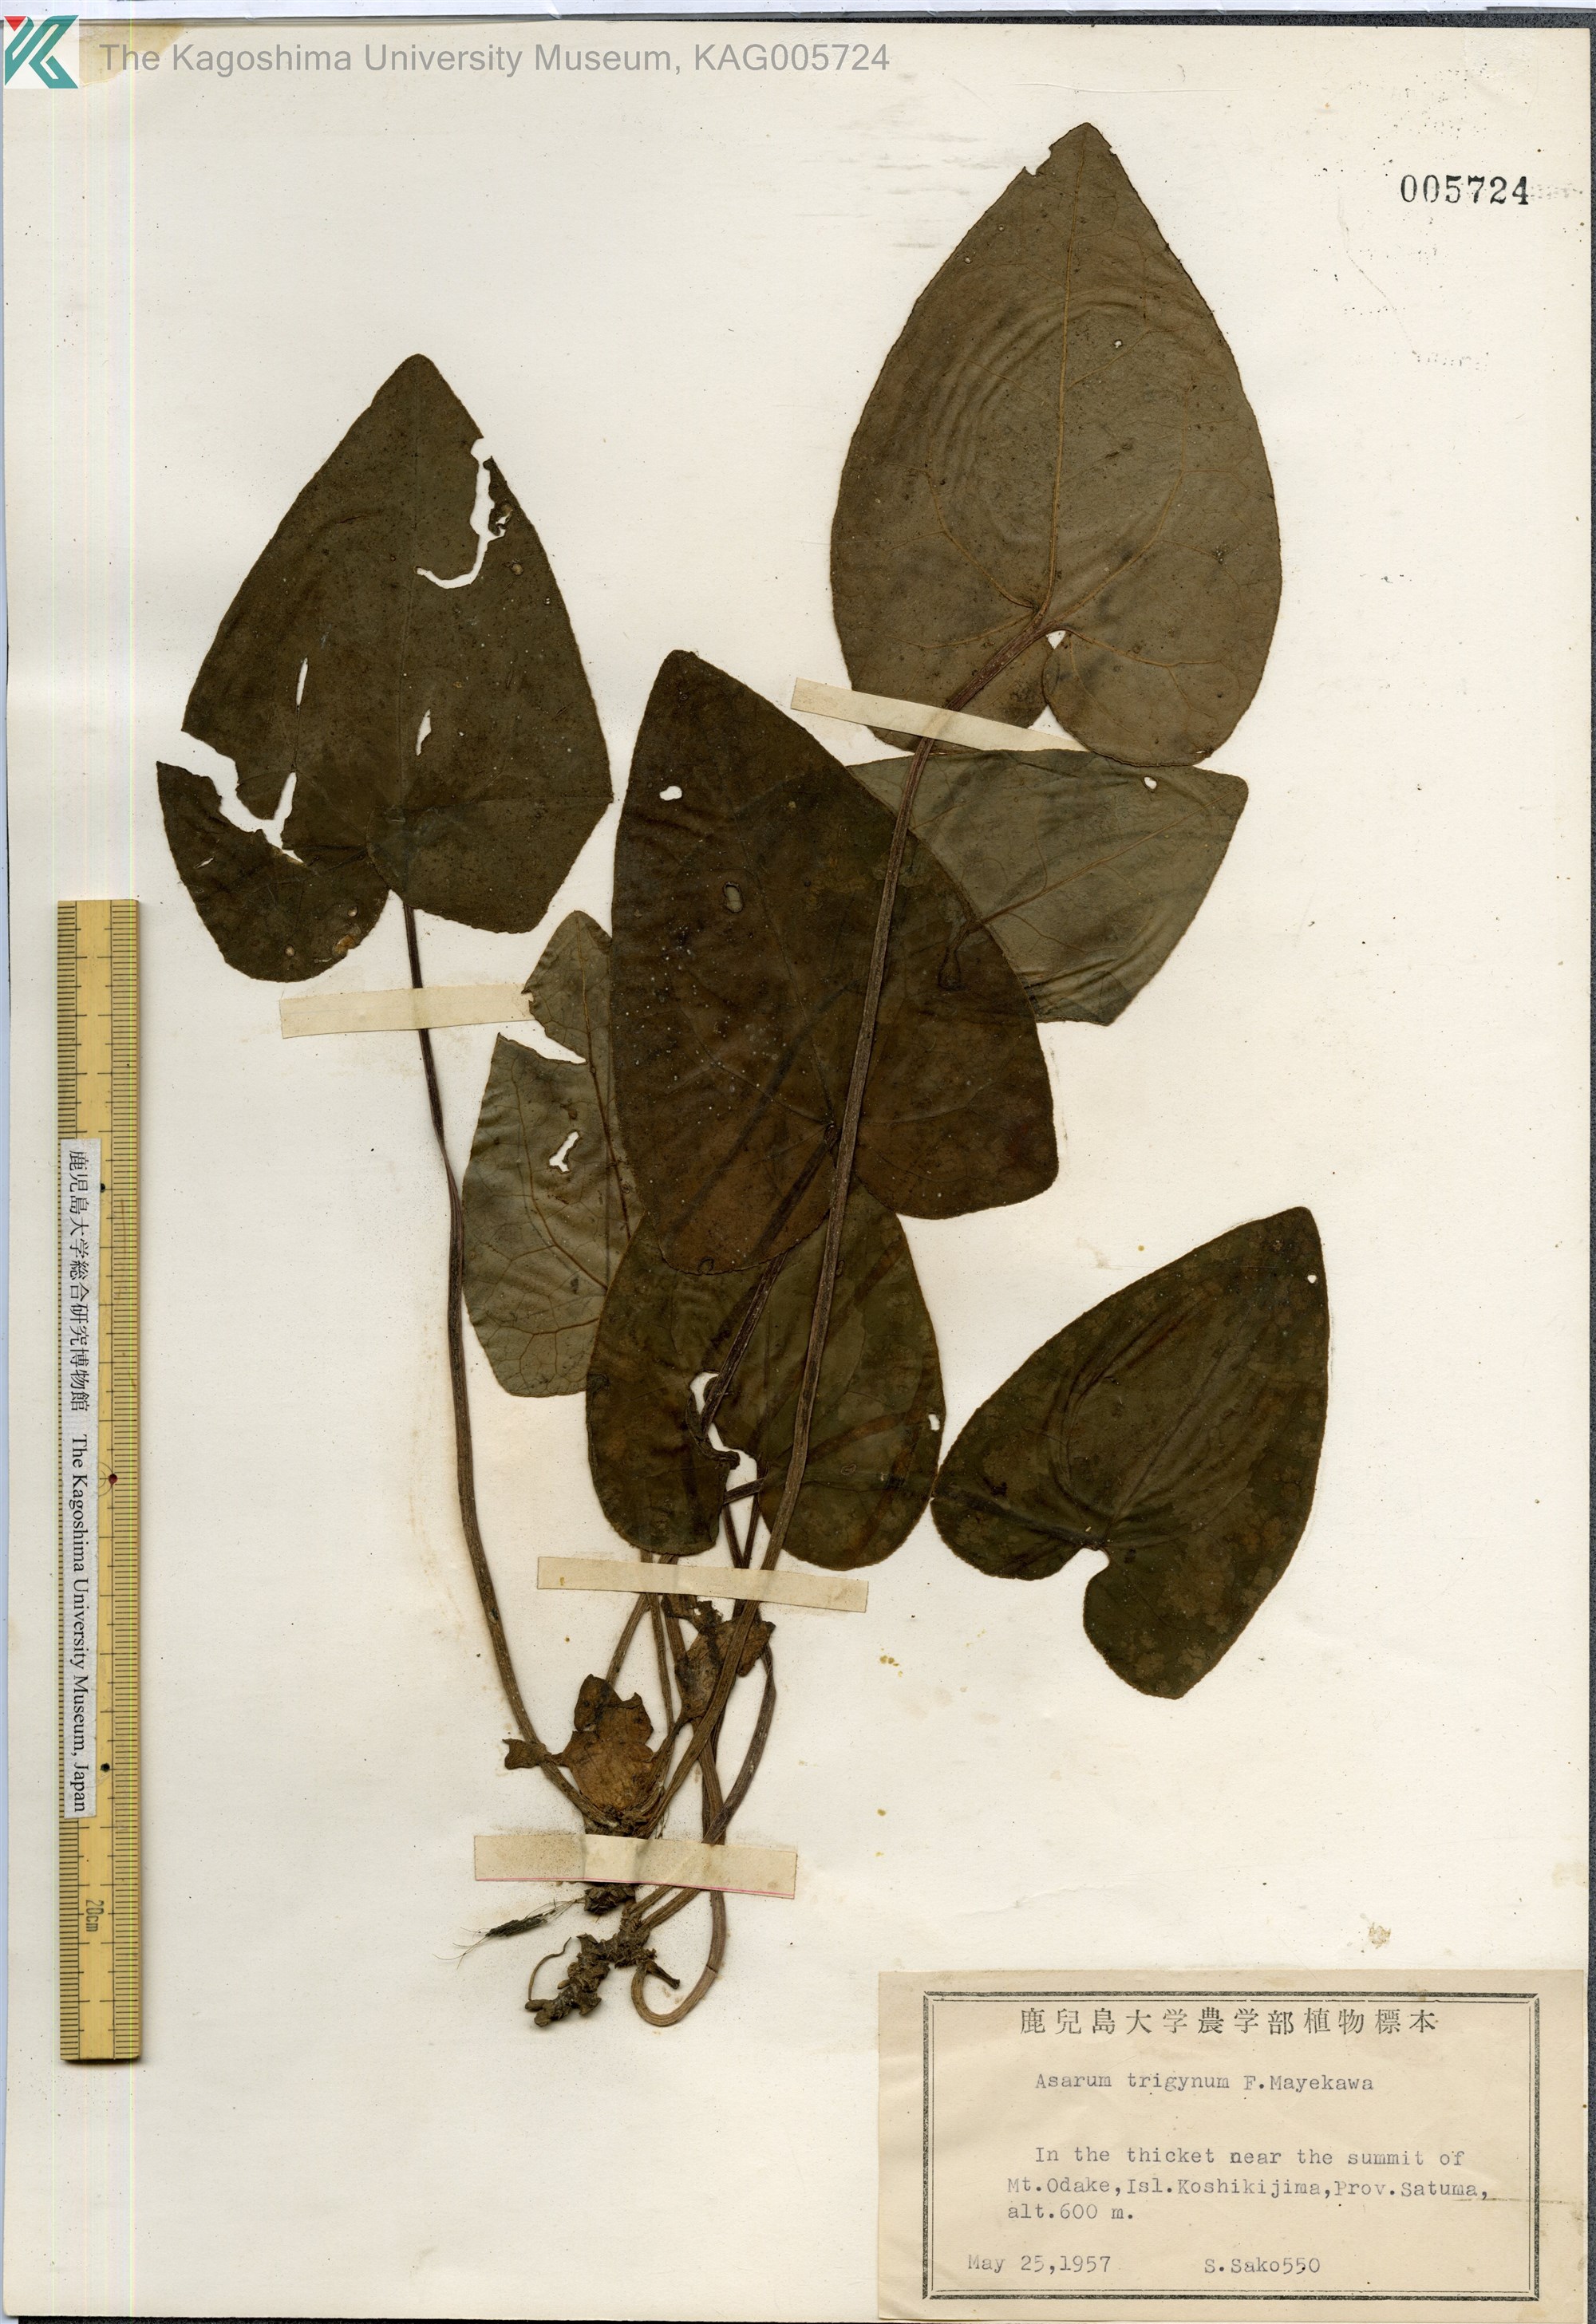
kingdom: Plantae
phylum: Tracheophyta
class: Magnoliopsida
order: Piperales
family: Aristolochiaceae
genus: Asarum
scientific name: Asarum trigynum
